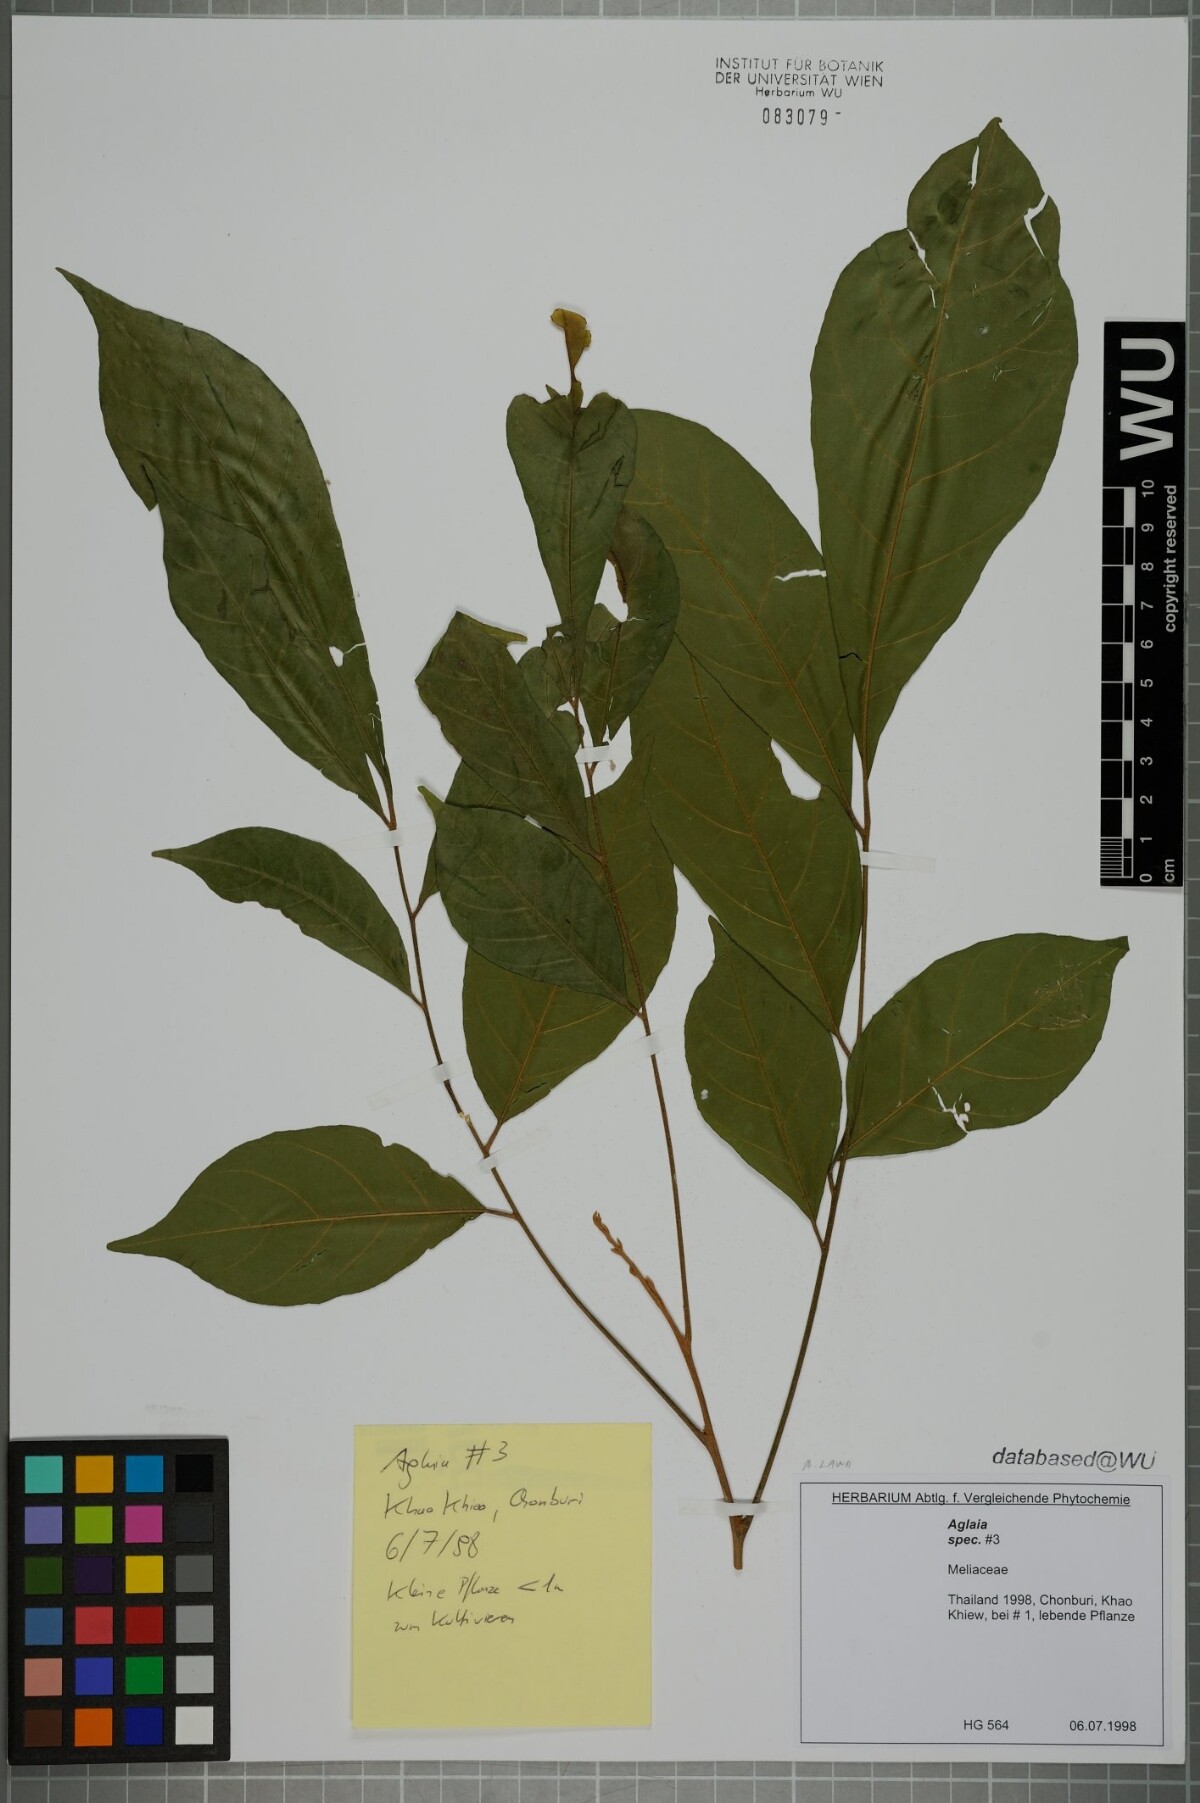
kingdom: Plantae
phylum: Tracheophyta
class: Magnoliopsida
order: Sapindales
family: Meliaceae
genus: Aglaia
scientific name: Aglaia lawii
